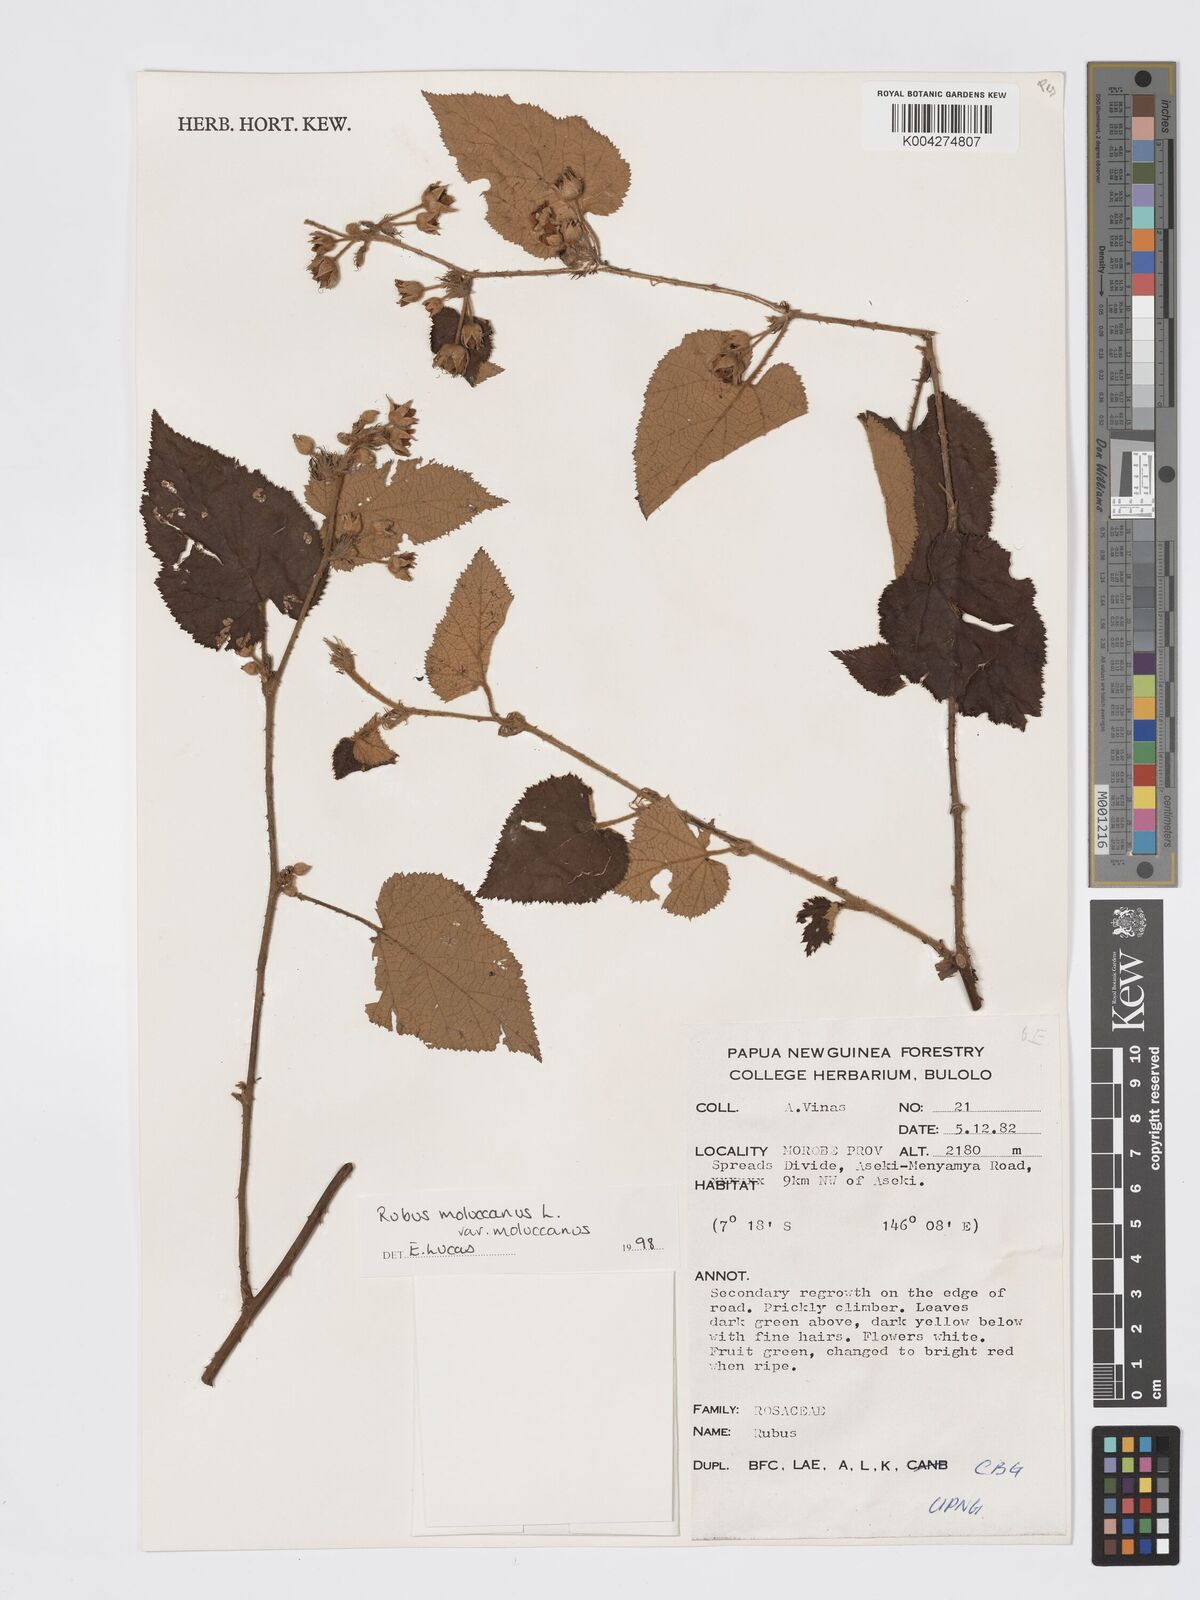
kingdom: Plantae
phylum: Tracheophyta
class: Magnoliopsida
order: Rosales
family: Rosaceae
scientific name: Rosaceae
